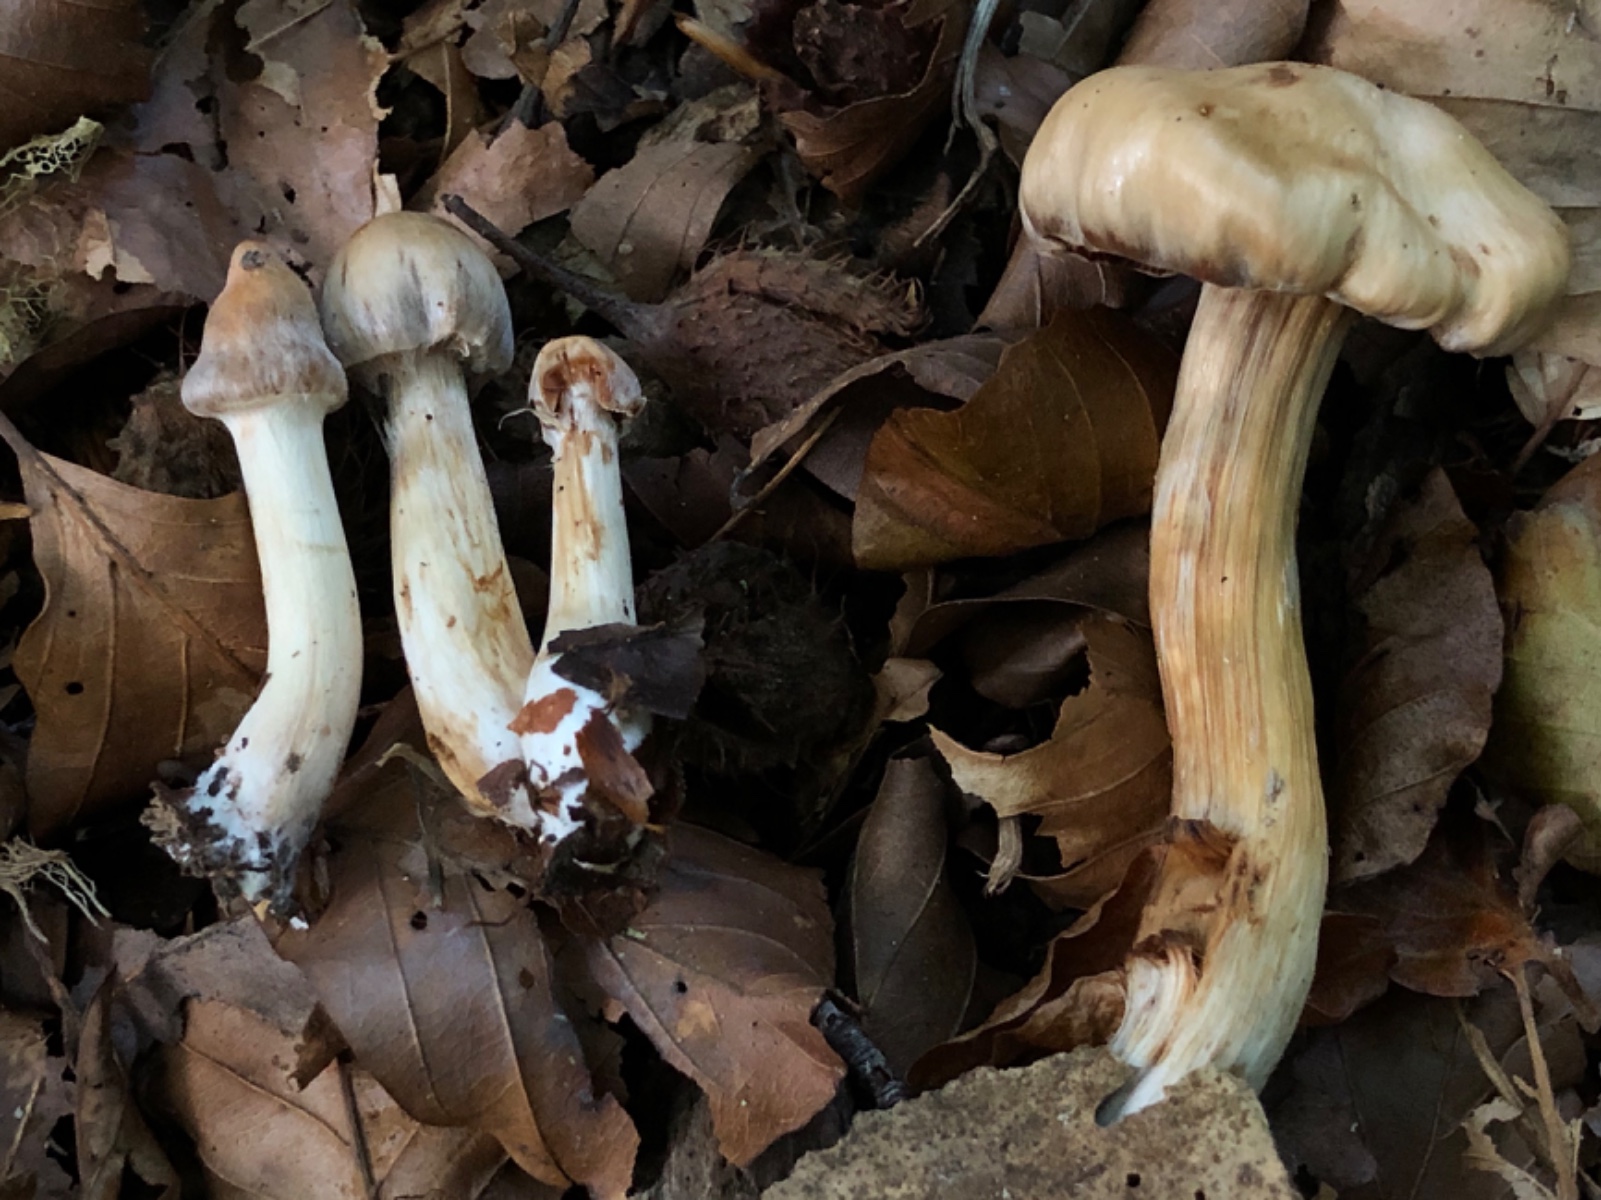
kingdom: Fungi
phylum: Basidiomycota
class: Agaricomycetes
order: Agaricales
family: Cortinariaceae
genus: Cortinarius
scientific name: Cortinarius
